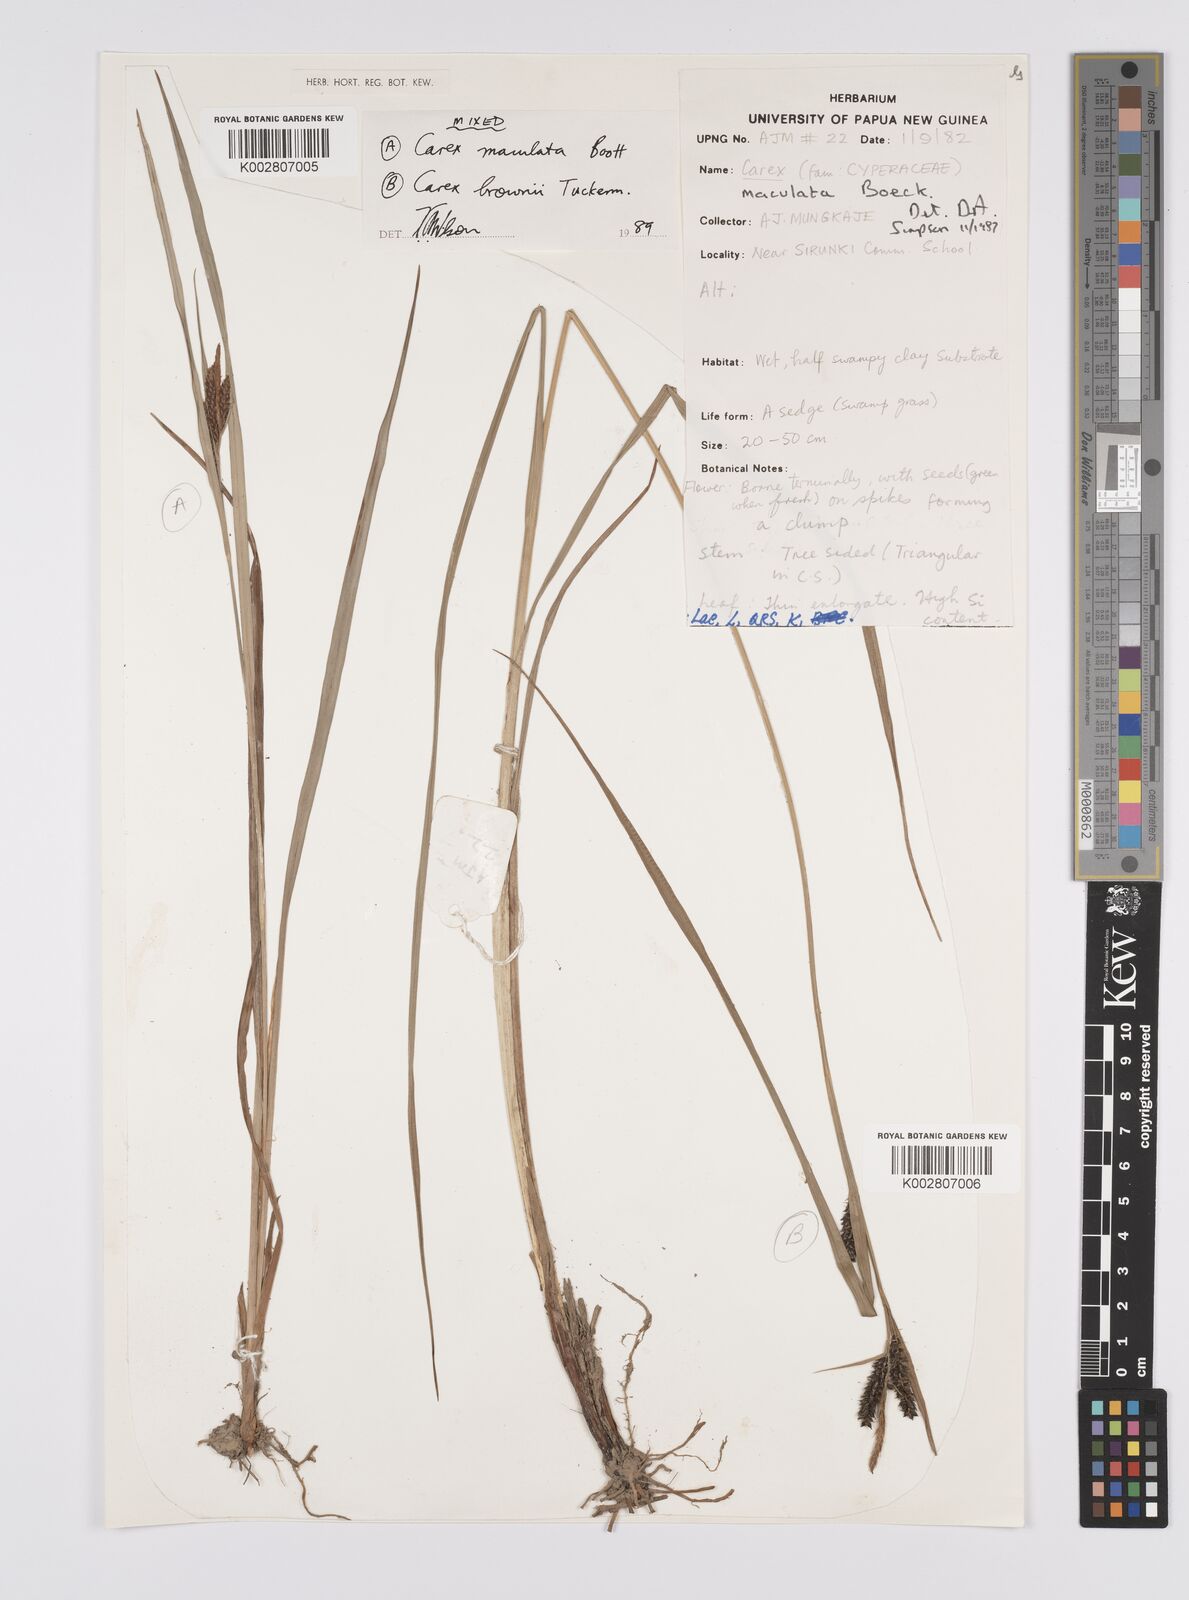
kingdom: Plantae
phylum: Tracheophyta
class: Liliopsida
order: Poales
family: Cyperaceae
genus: Carex
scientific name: Carex maculata
